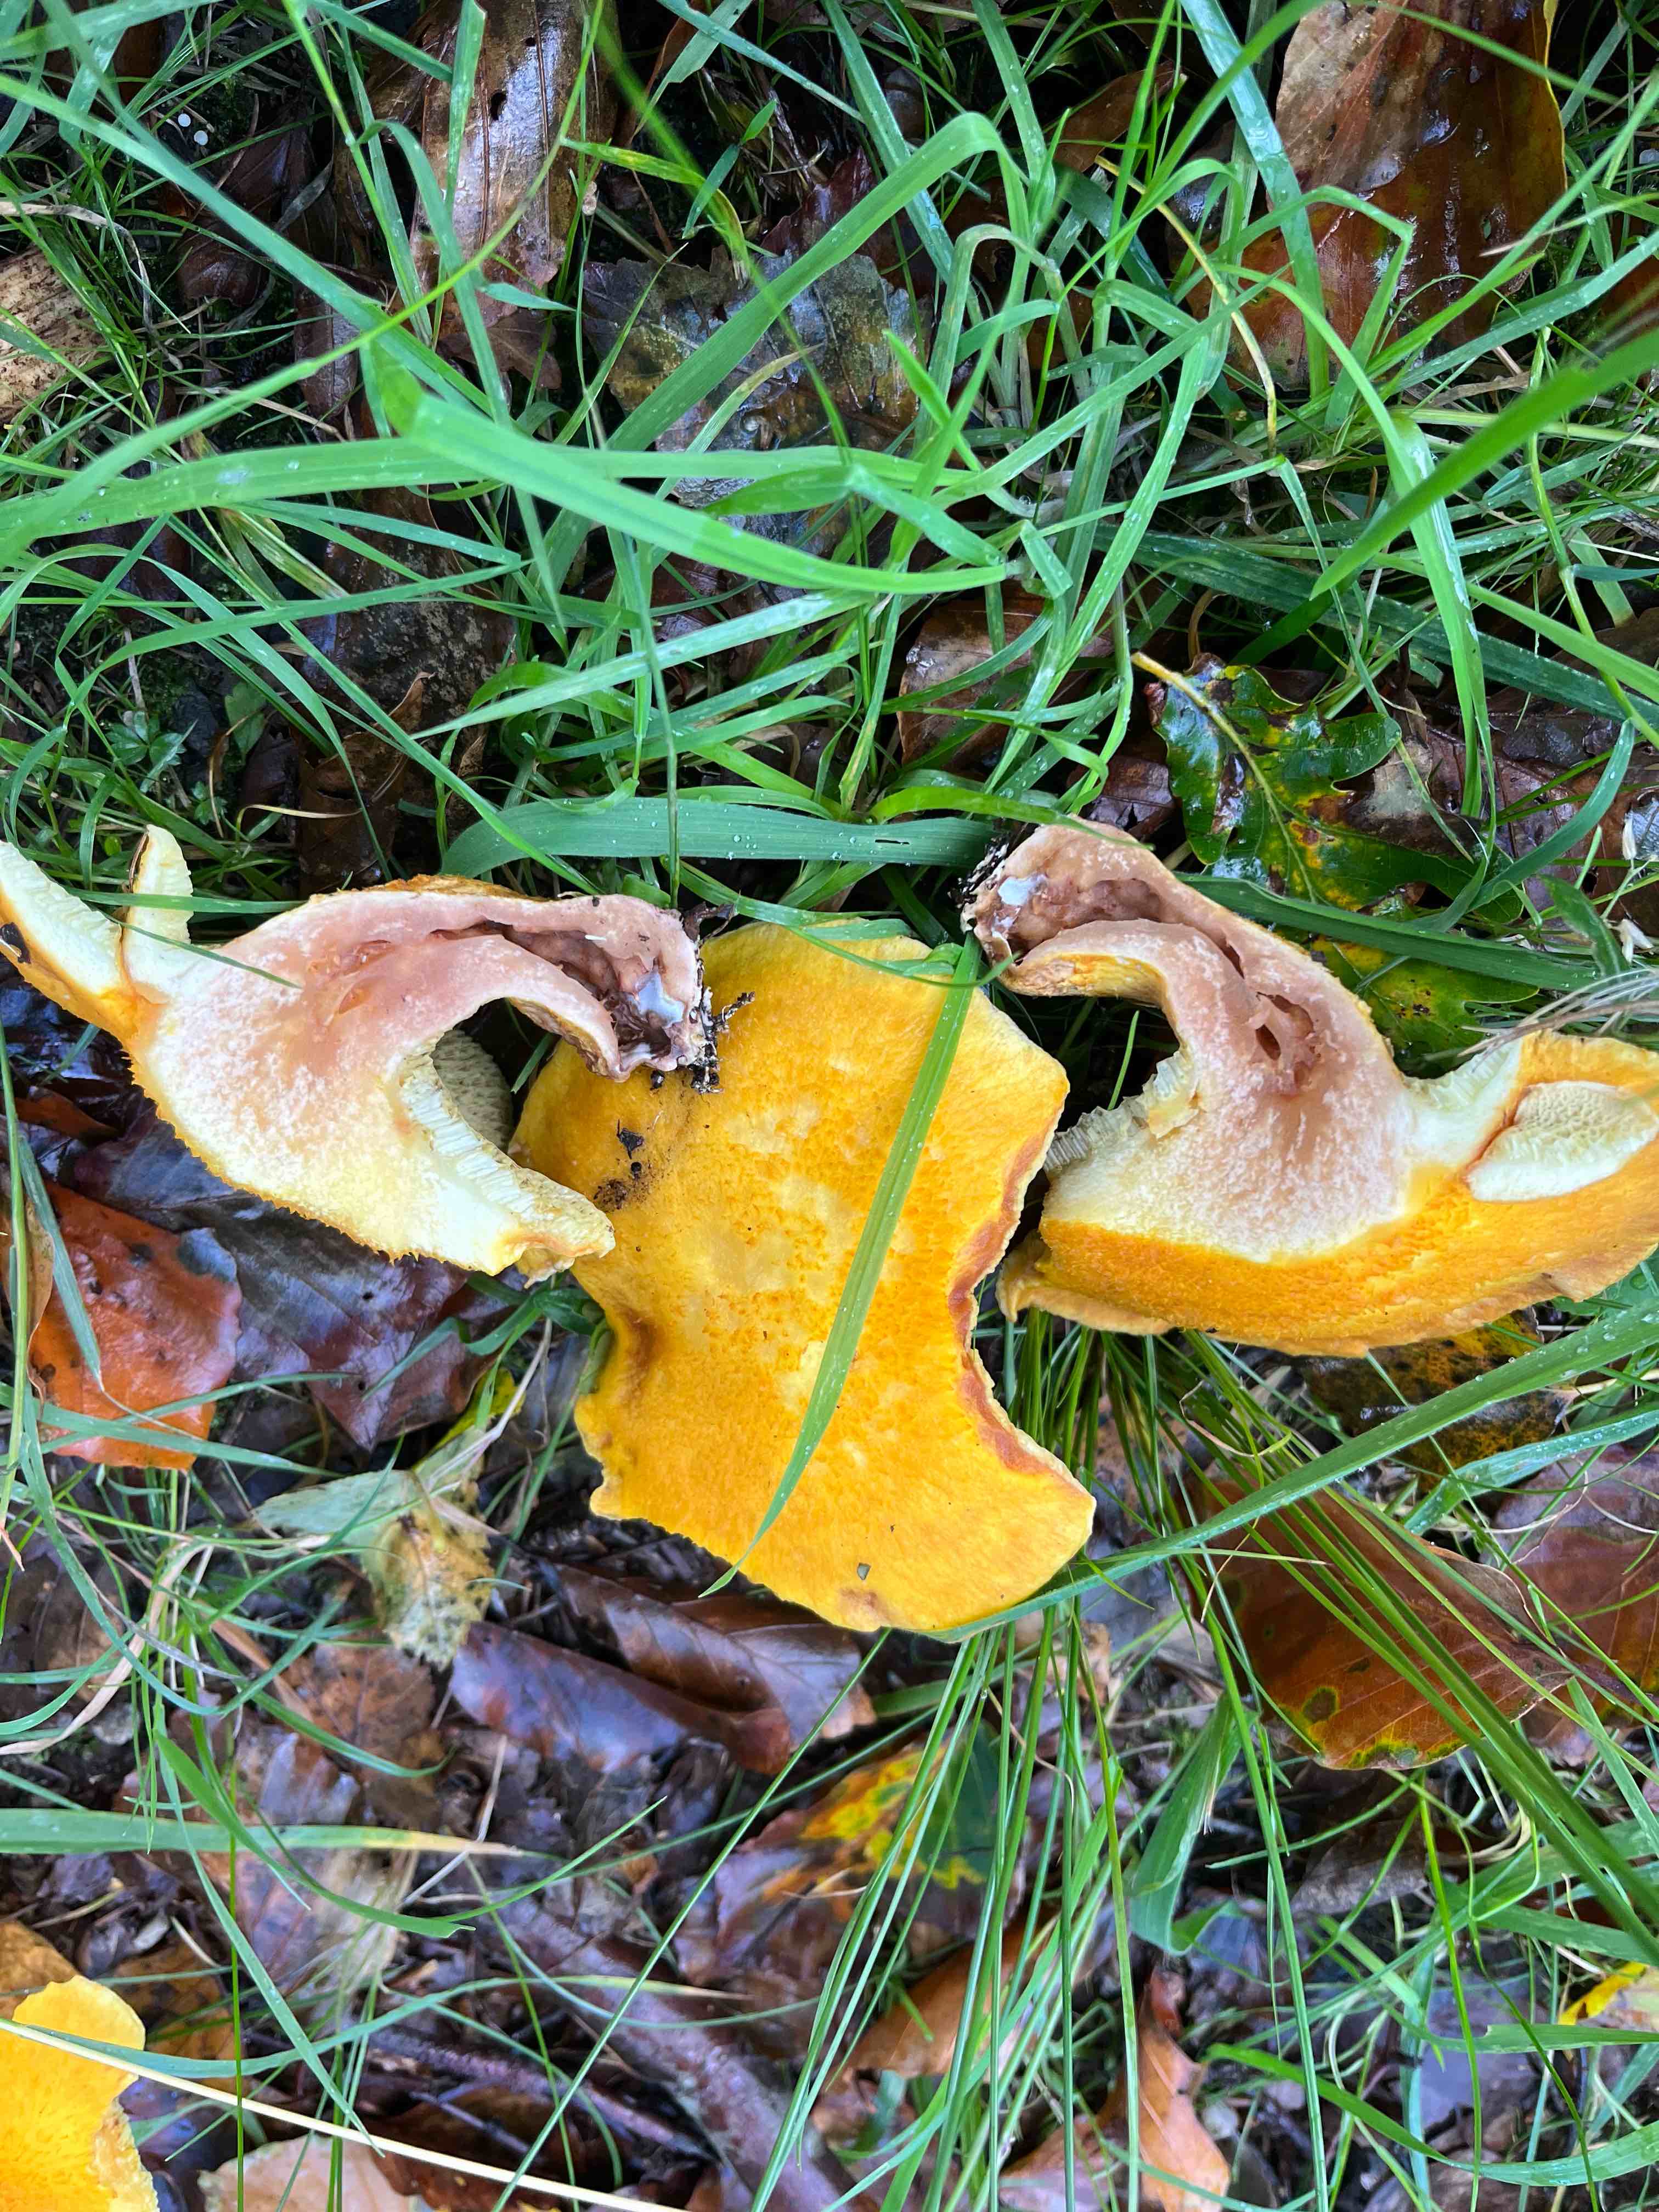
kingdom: Fungi
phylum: Basidiomycota
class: Agaricomycetes
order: Boletales
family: Suillaceae
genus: Suillus
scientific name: Suillus grevillei
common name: lærke-slimrørhat
